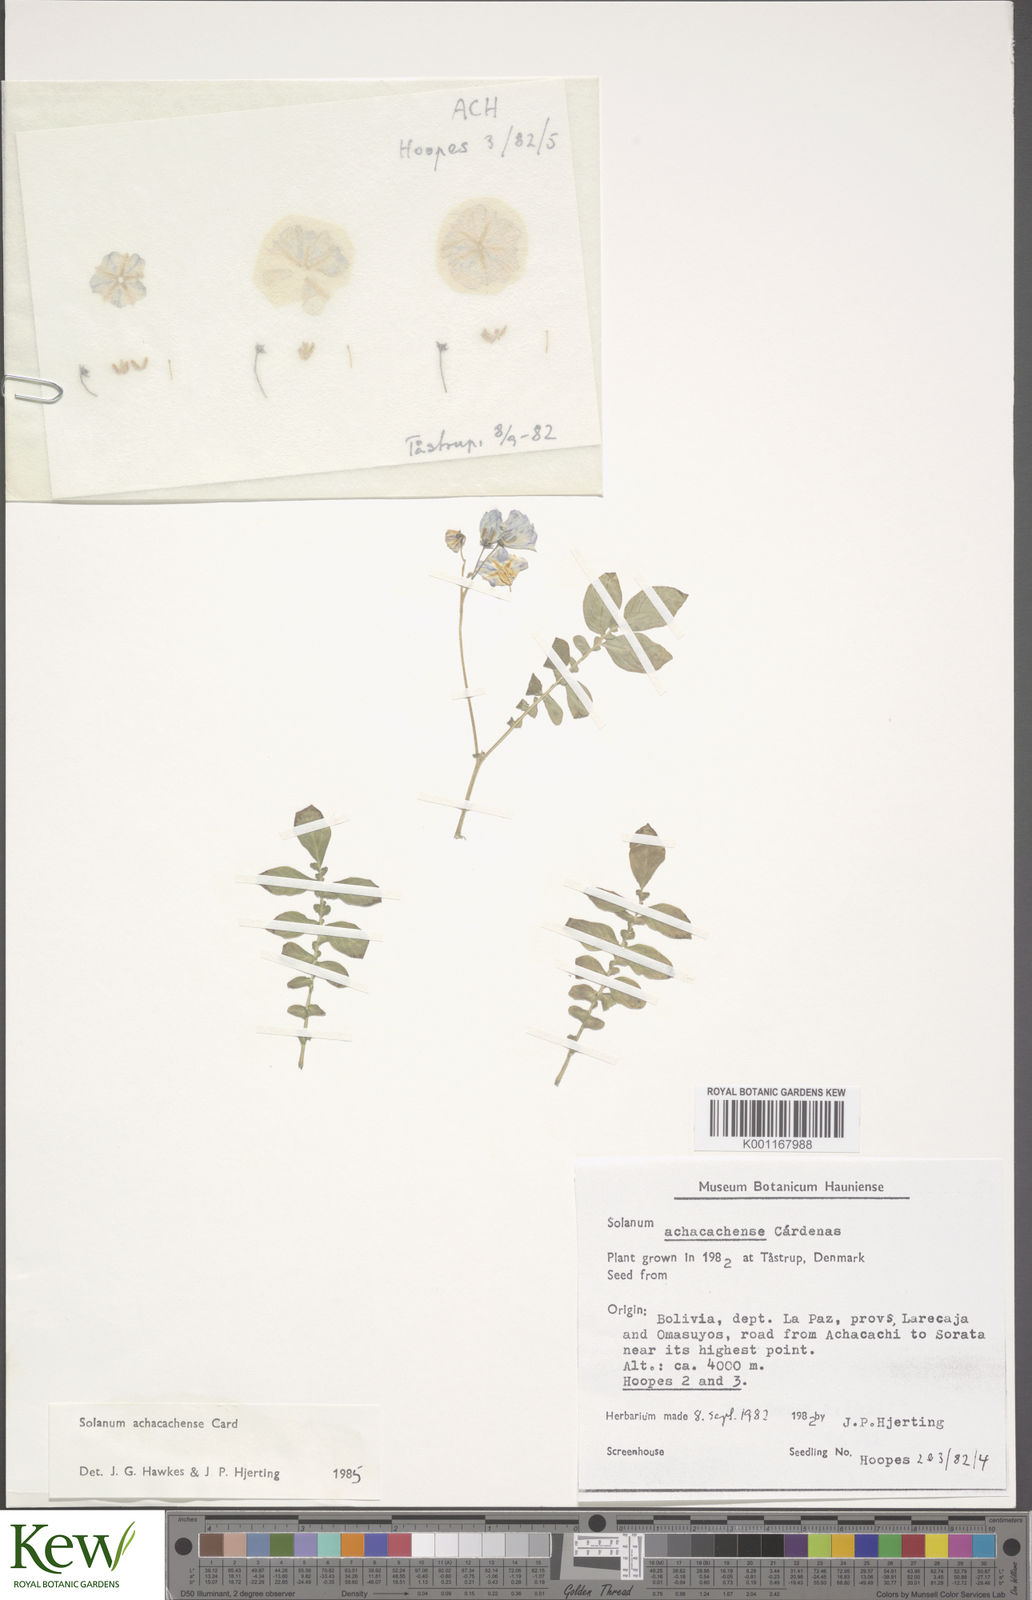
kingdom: Plantae
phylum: Tracheophyta
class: Magnoliopsida
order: Solanales
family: Solanaceae
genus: Solanum
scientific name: Solanum
